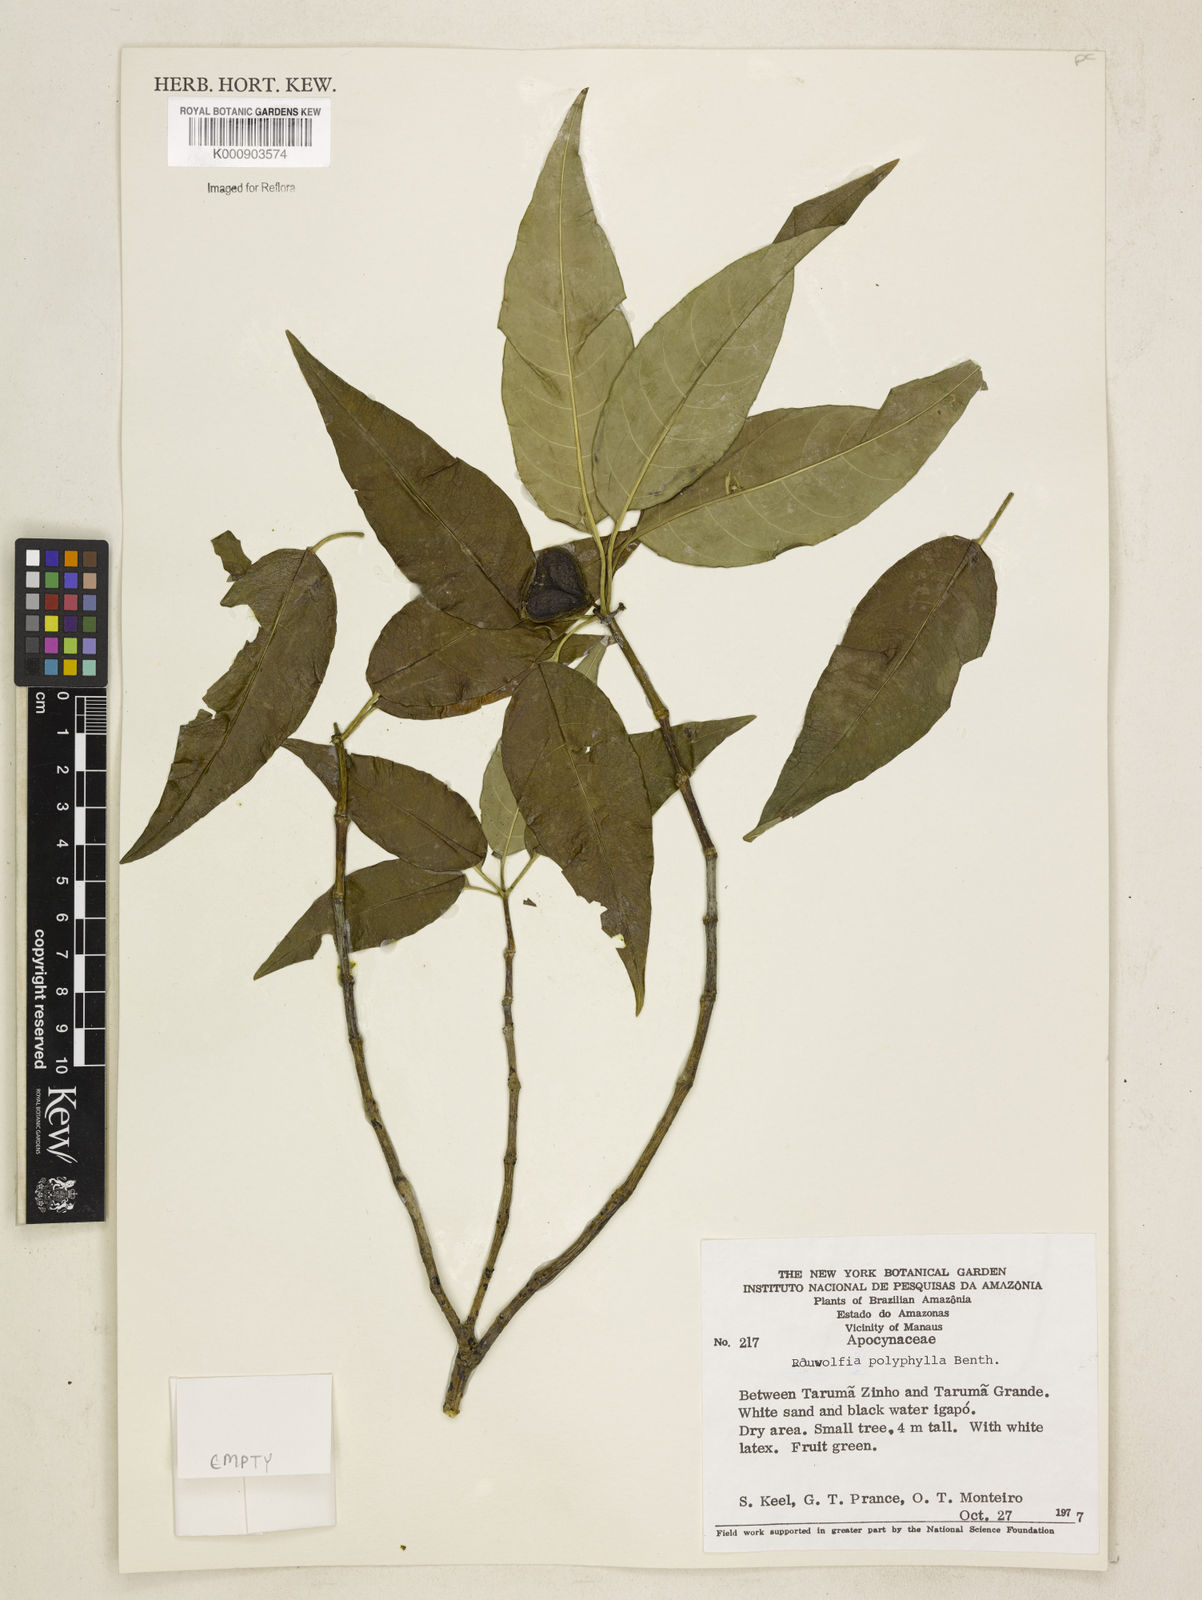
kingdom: Plantae
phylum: Tracheophyta
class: Magnoliopsida
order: Gentianales
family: Apocynaceae
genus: Rauvolfia
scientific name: Rauvolfia polyphylla
